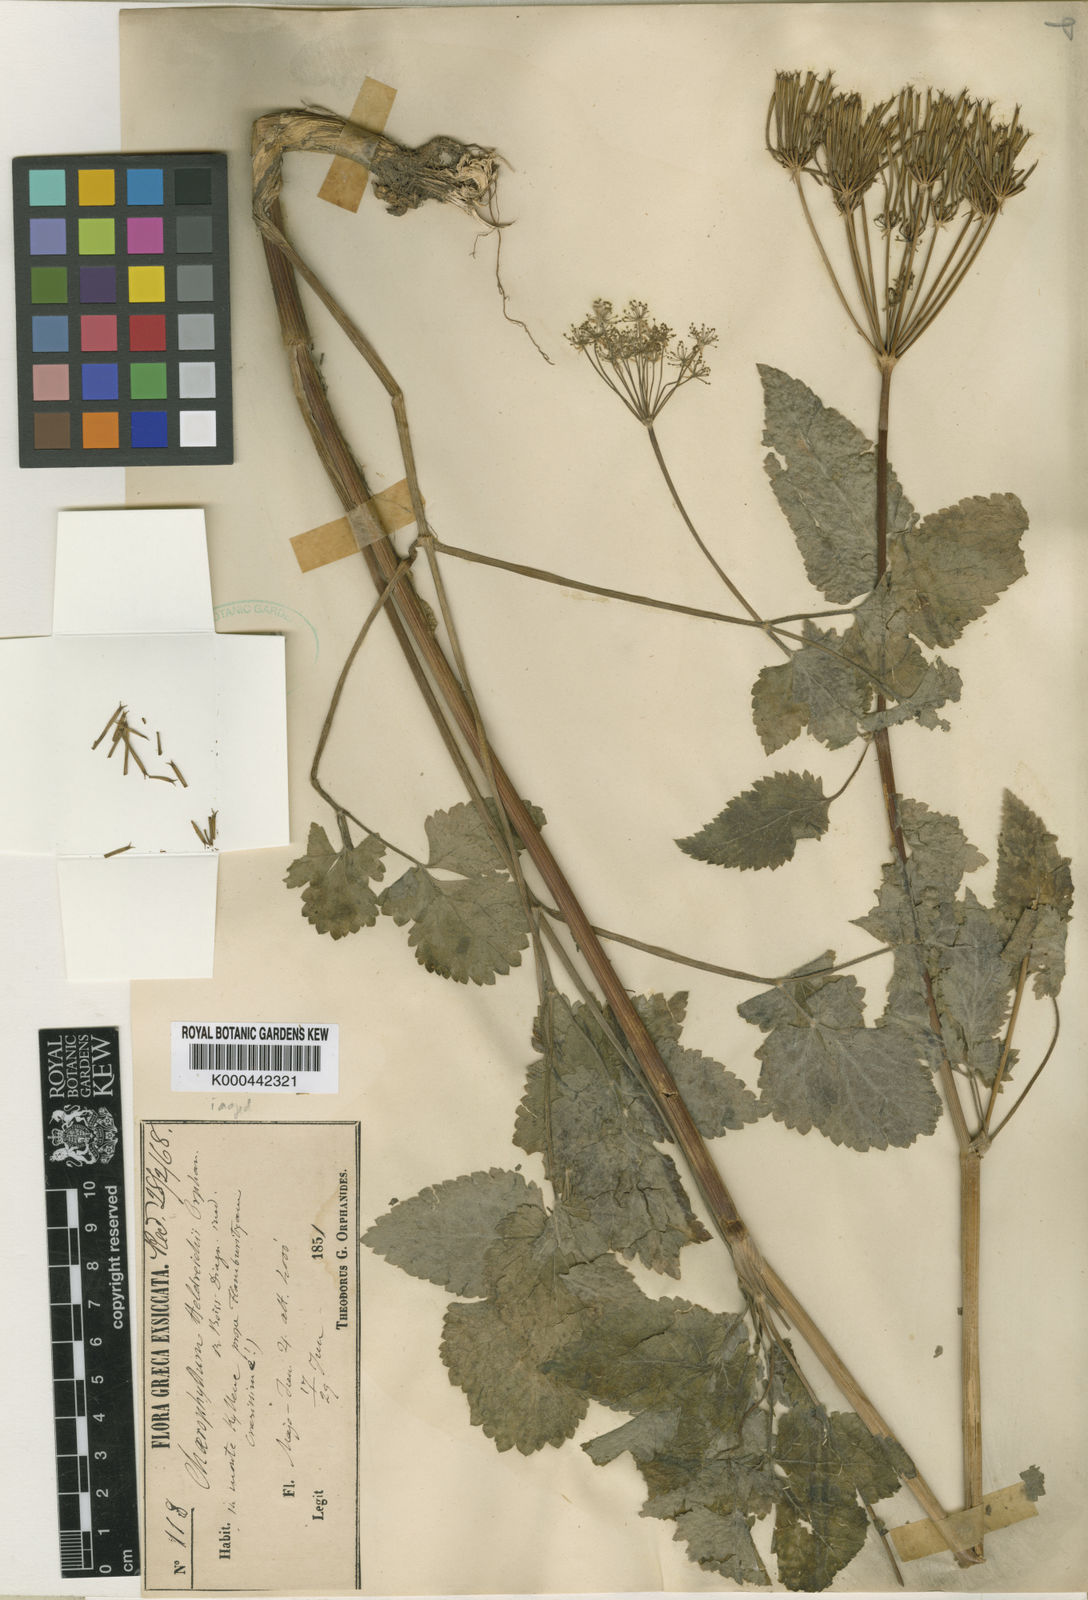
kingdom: Plantae
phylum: Tracheophyta
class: Magnoliopsida
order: Apiales
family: Apiaceae
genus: Chaerophyllum
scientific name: Chaerophyllum heldreichii
